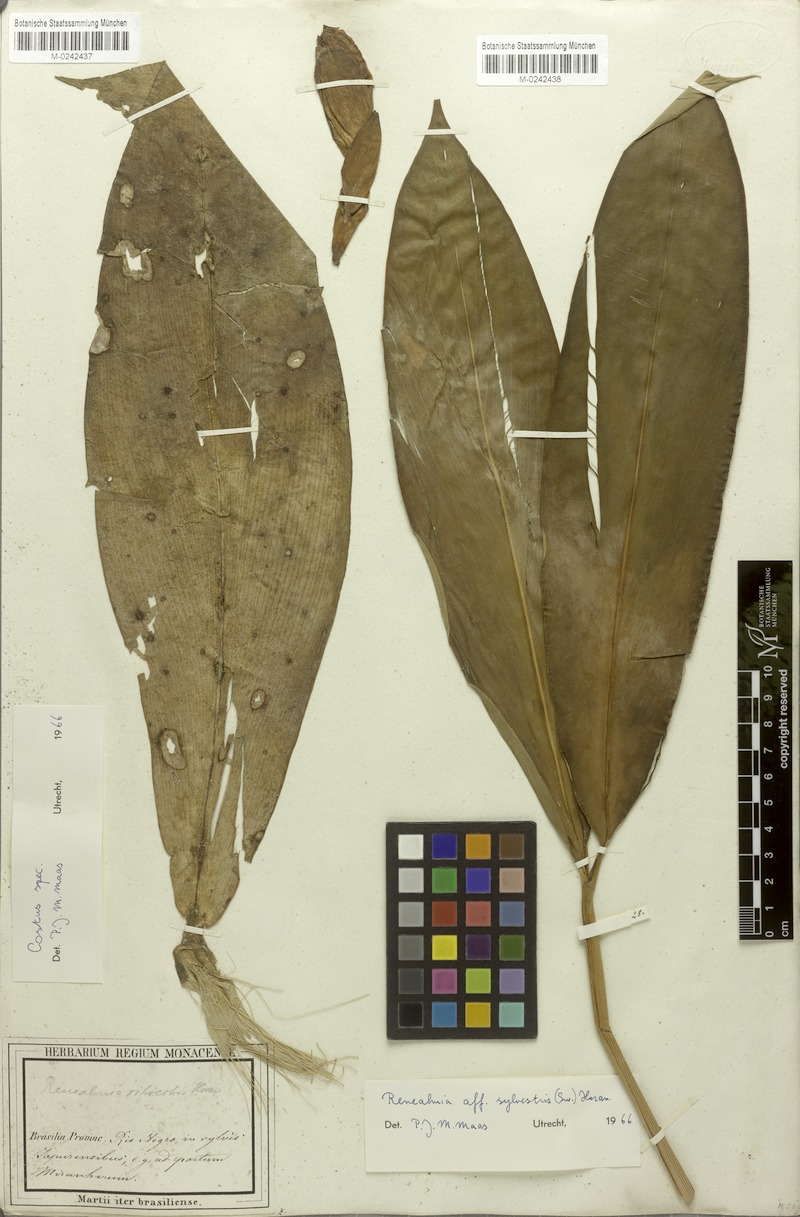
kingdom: Plantae
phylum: Tracheophyta
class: Liliopsida
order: Zingiberales
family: Costaceae
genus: Costus
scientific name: Costus
